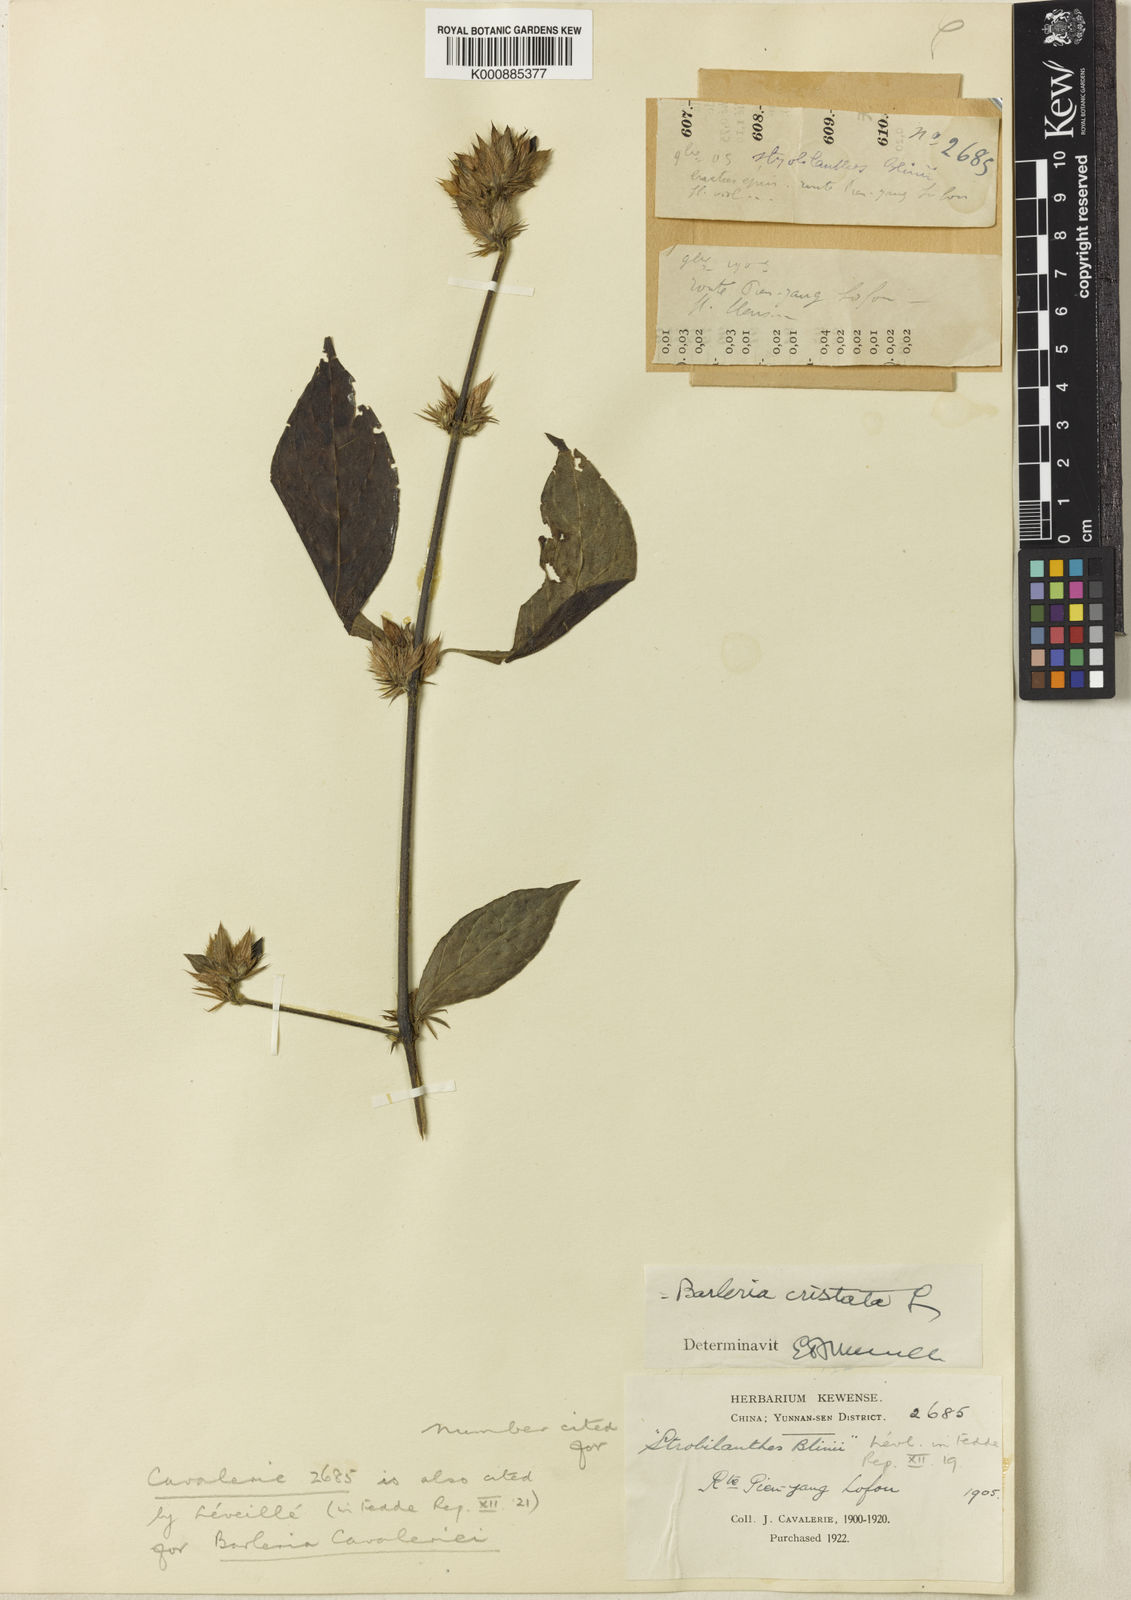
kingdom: Plantae
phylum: Tracheophyta
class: Magnoliopsida
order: Lamiales
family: Acanthaceae
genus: Barleria
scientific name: Barleria cristata
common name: Crested philippine violet
